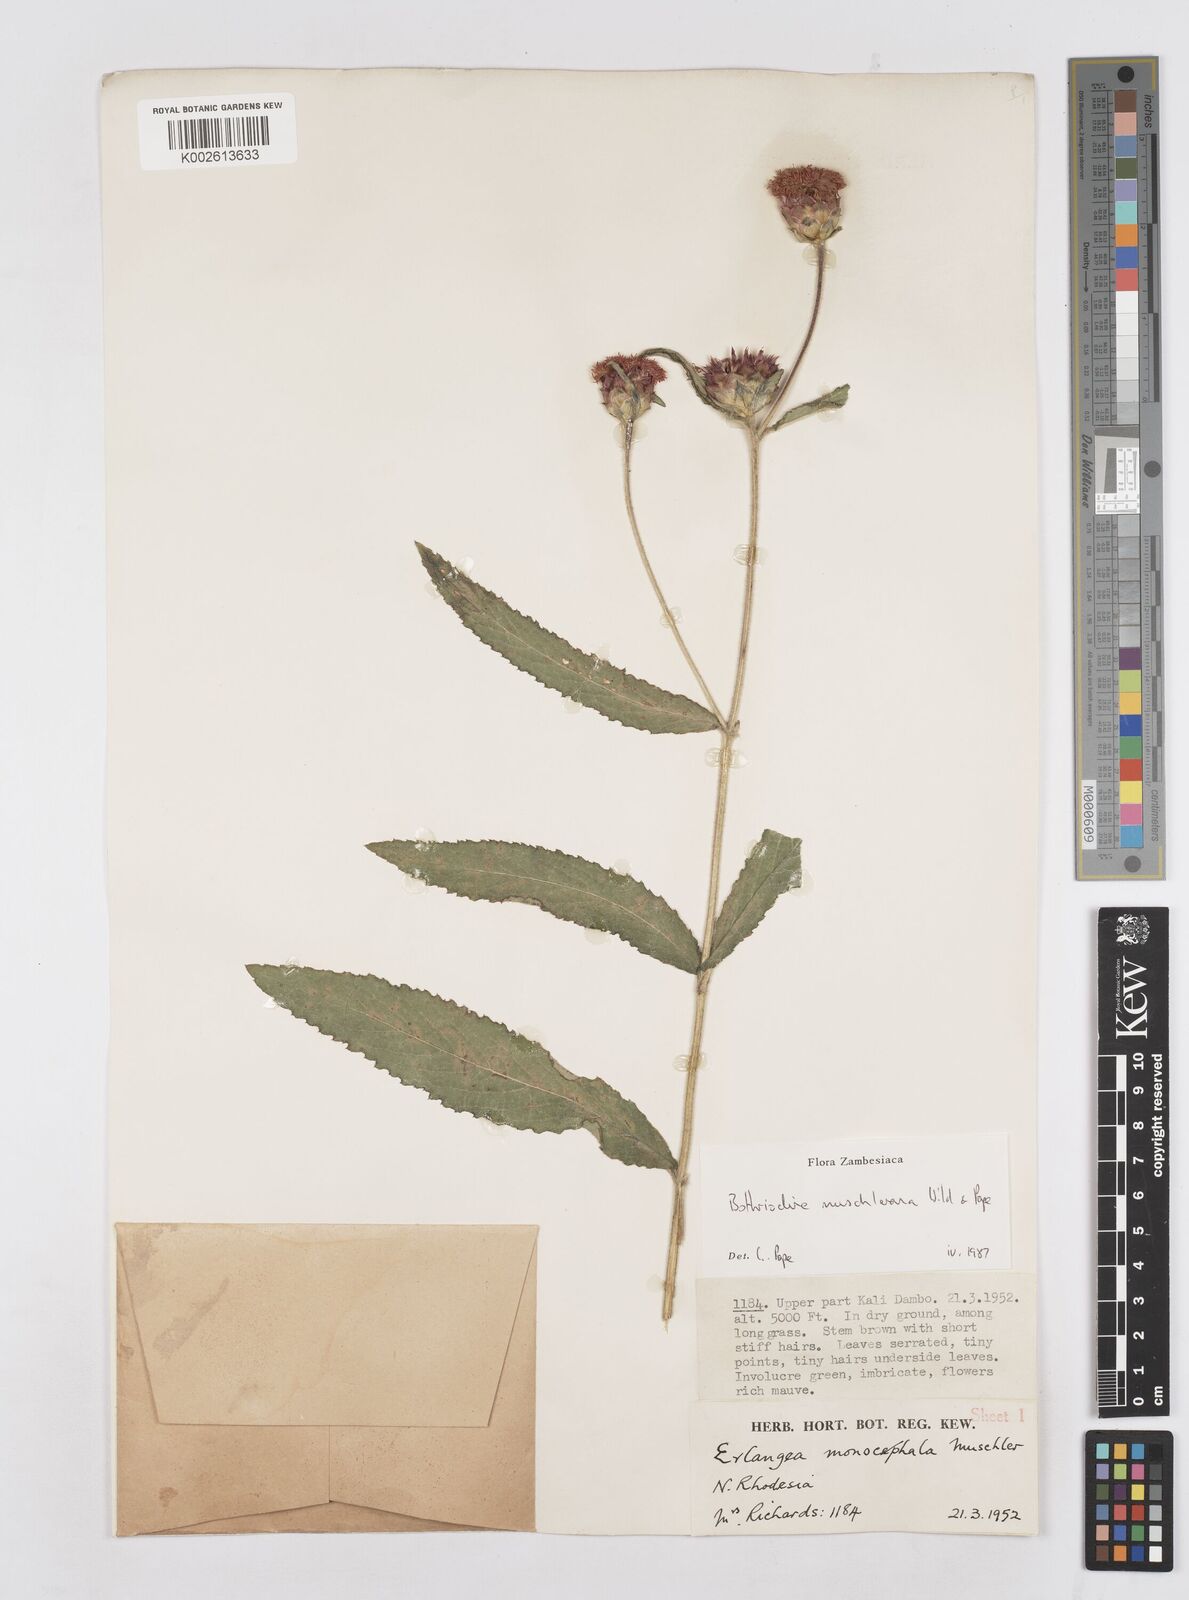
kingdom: Plantae
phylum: Tracheophyta
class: Magnoliopsida
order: Asterales
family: Asteraceae
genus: Bothriocline
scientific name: Bothriocline muschleriana
